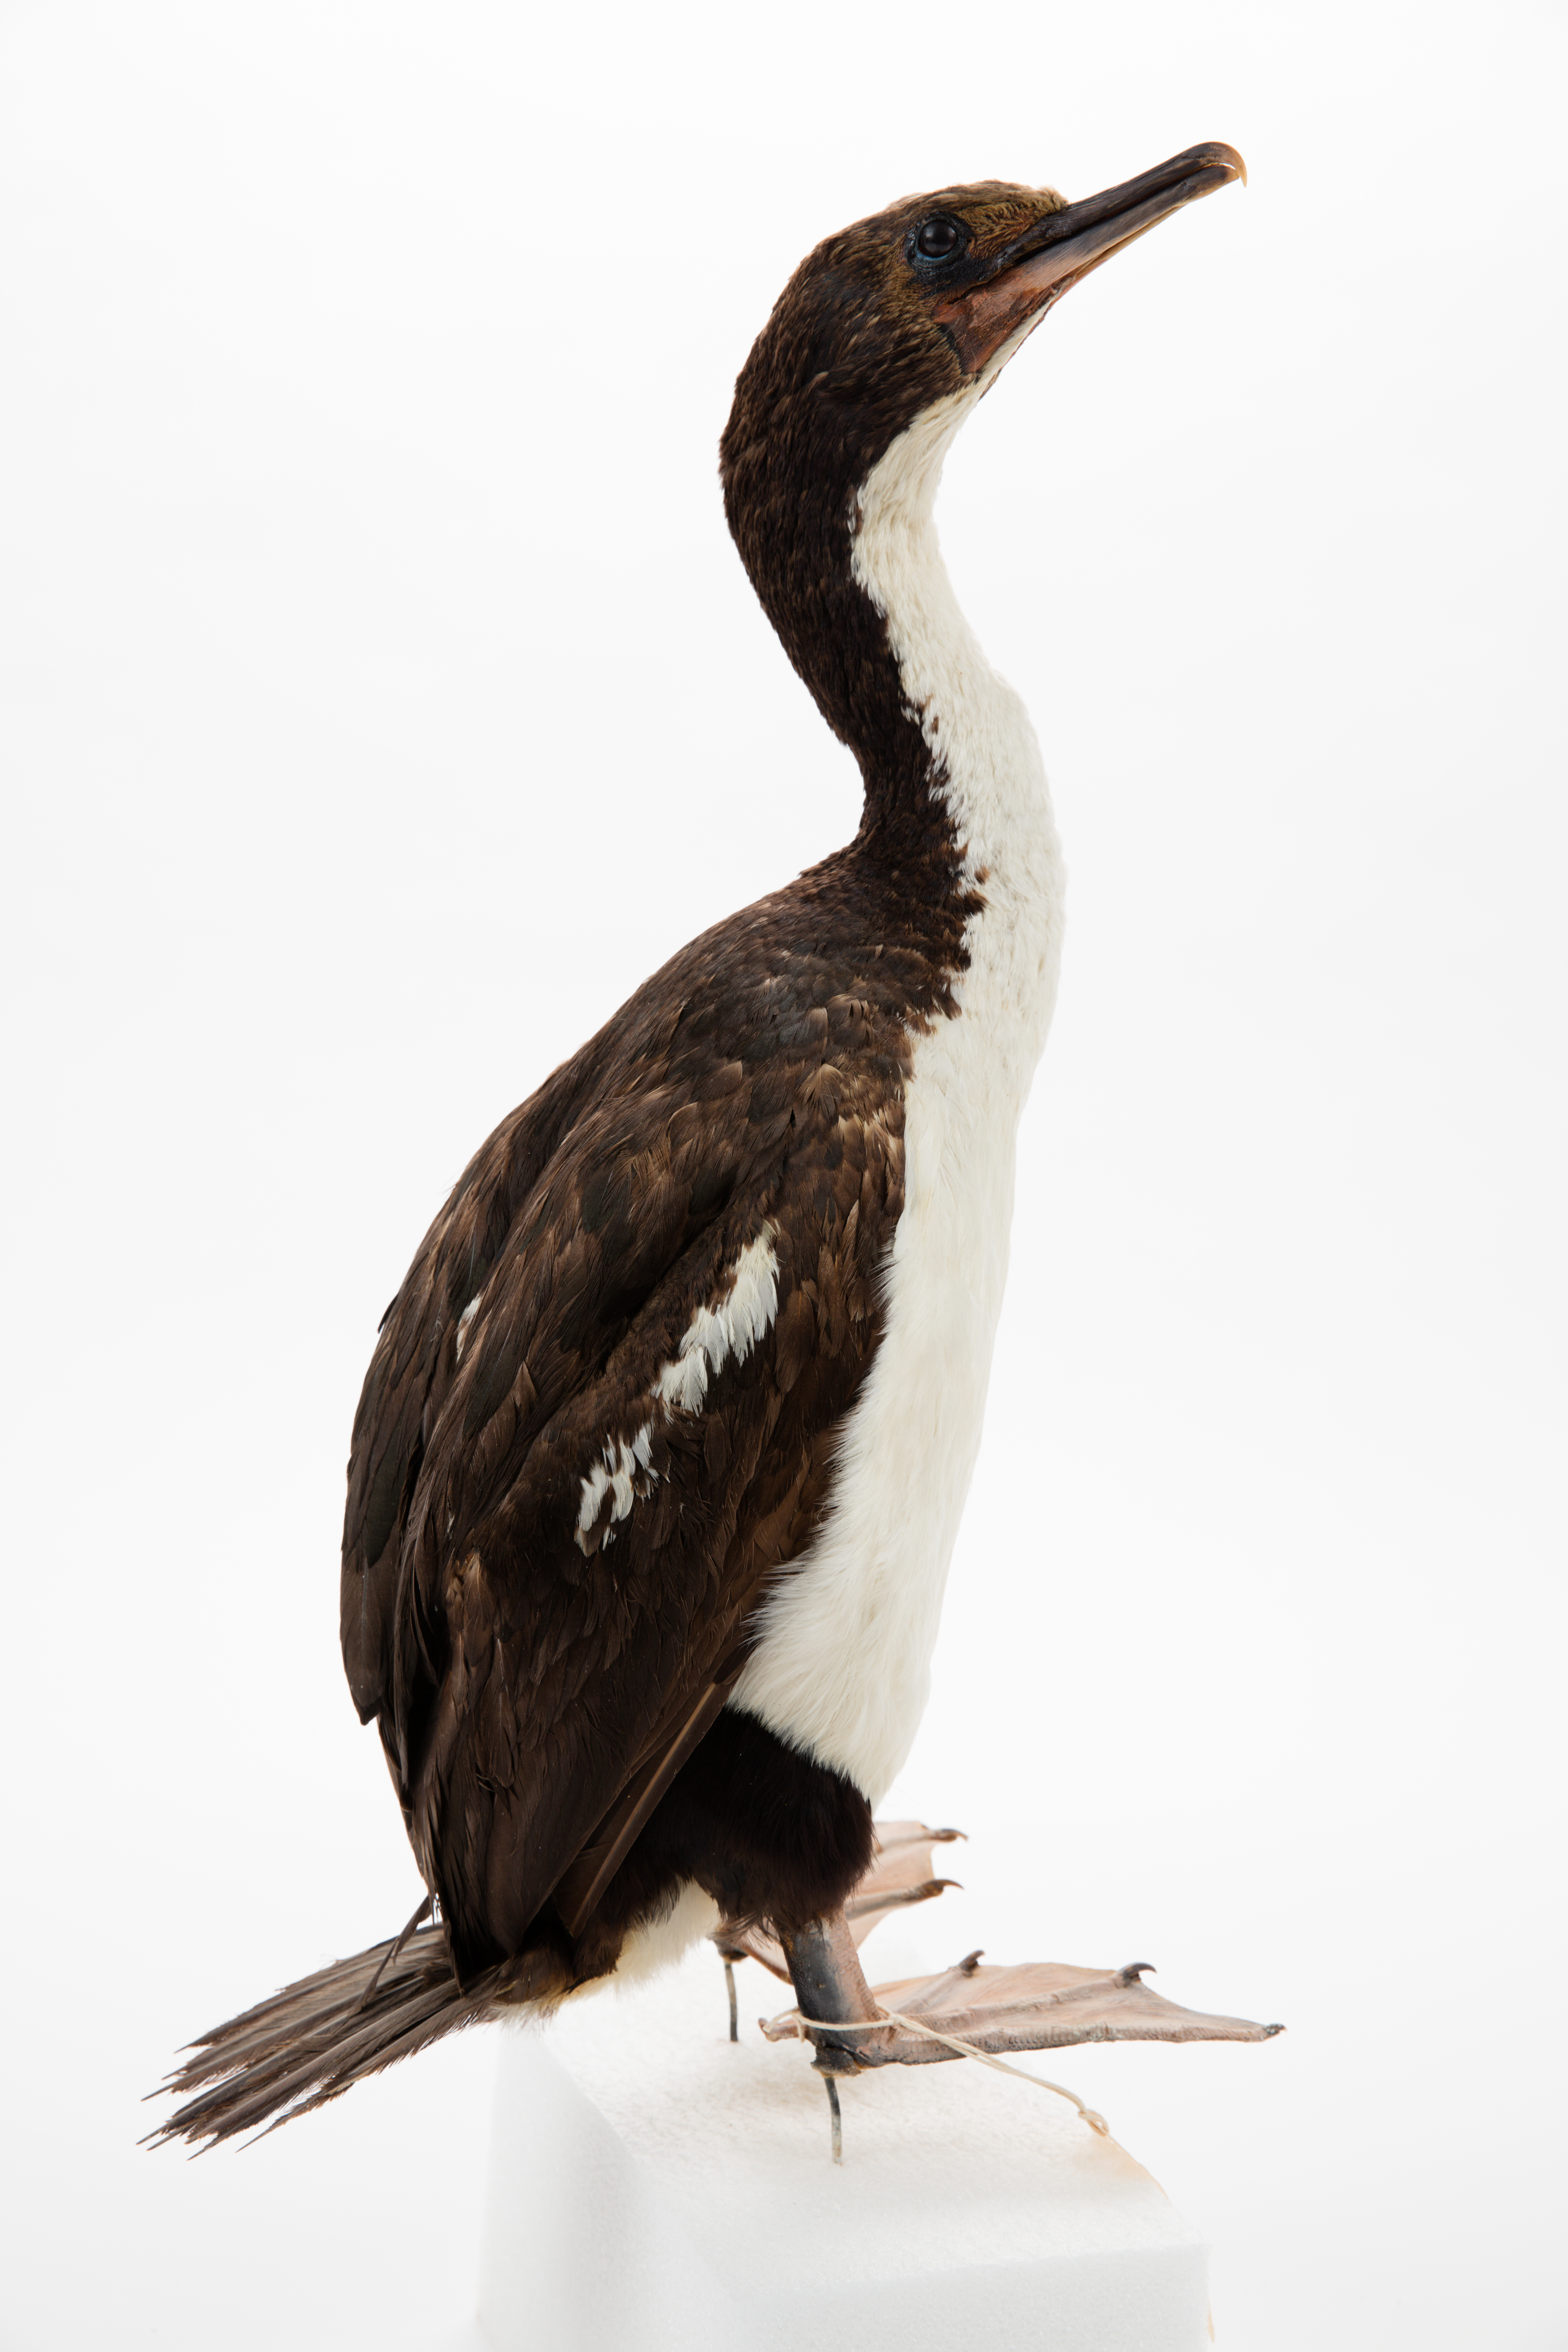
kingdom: Animalia
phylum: Chordata
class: Aves
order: Suliformes
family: Phalacrocoracidae
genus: Leucocarbo
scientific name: Leucocarbo chalconotus
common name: Stewart shag
